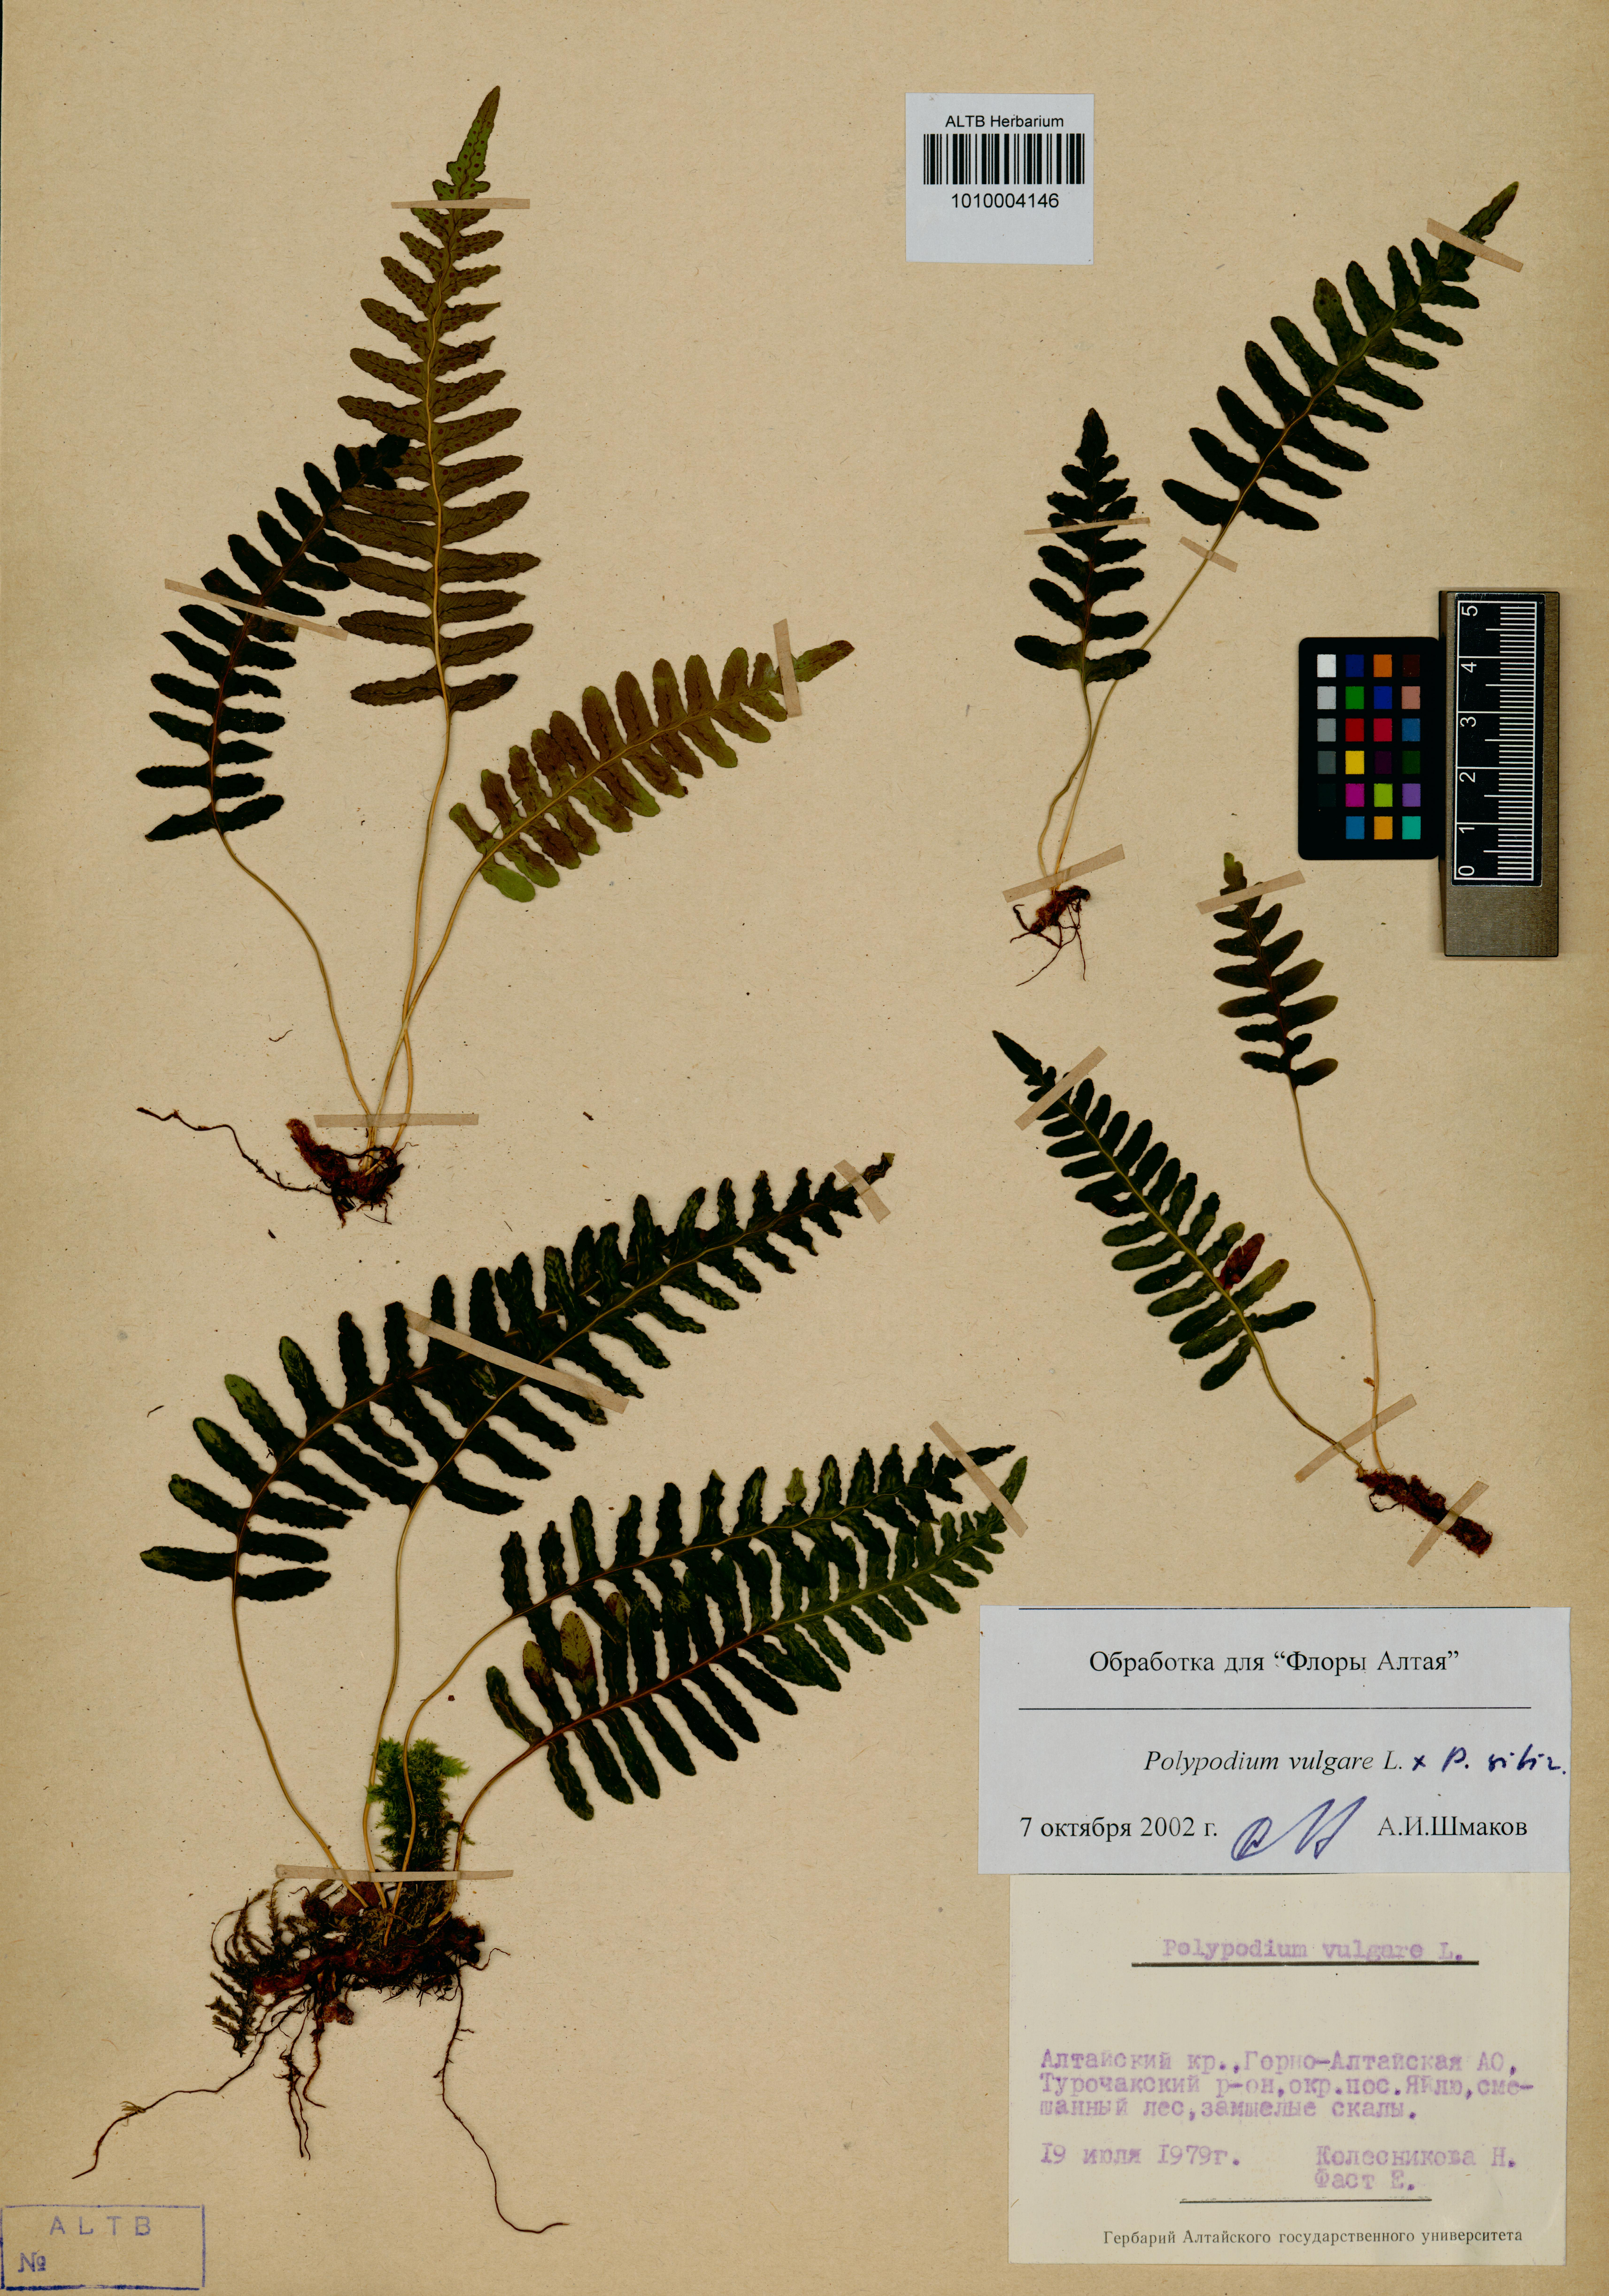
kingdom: Plantae
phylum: Tracheophyta
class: Polypodiopsida
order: Polypodiales
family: Polypodiaceae
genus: Polypodium
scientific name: Polypodium vulgare
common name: Common polypody
